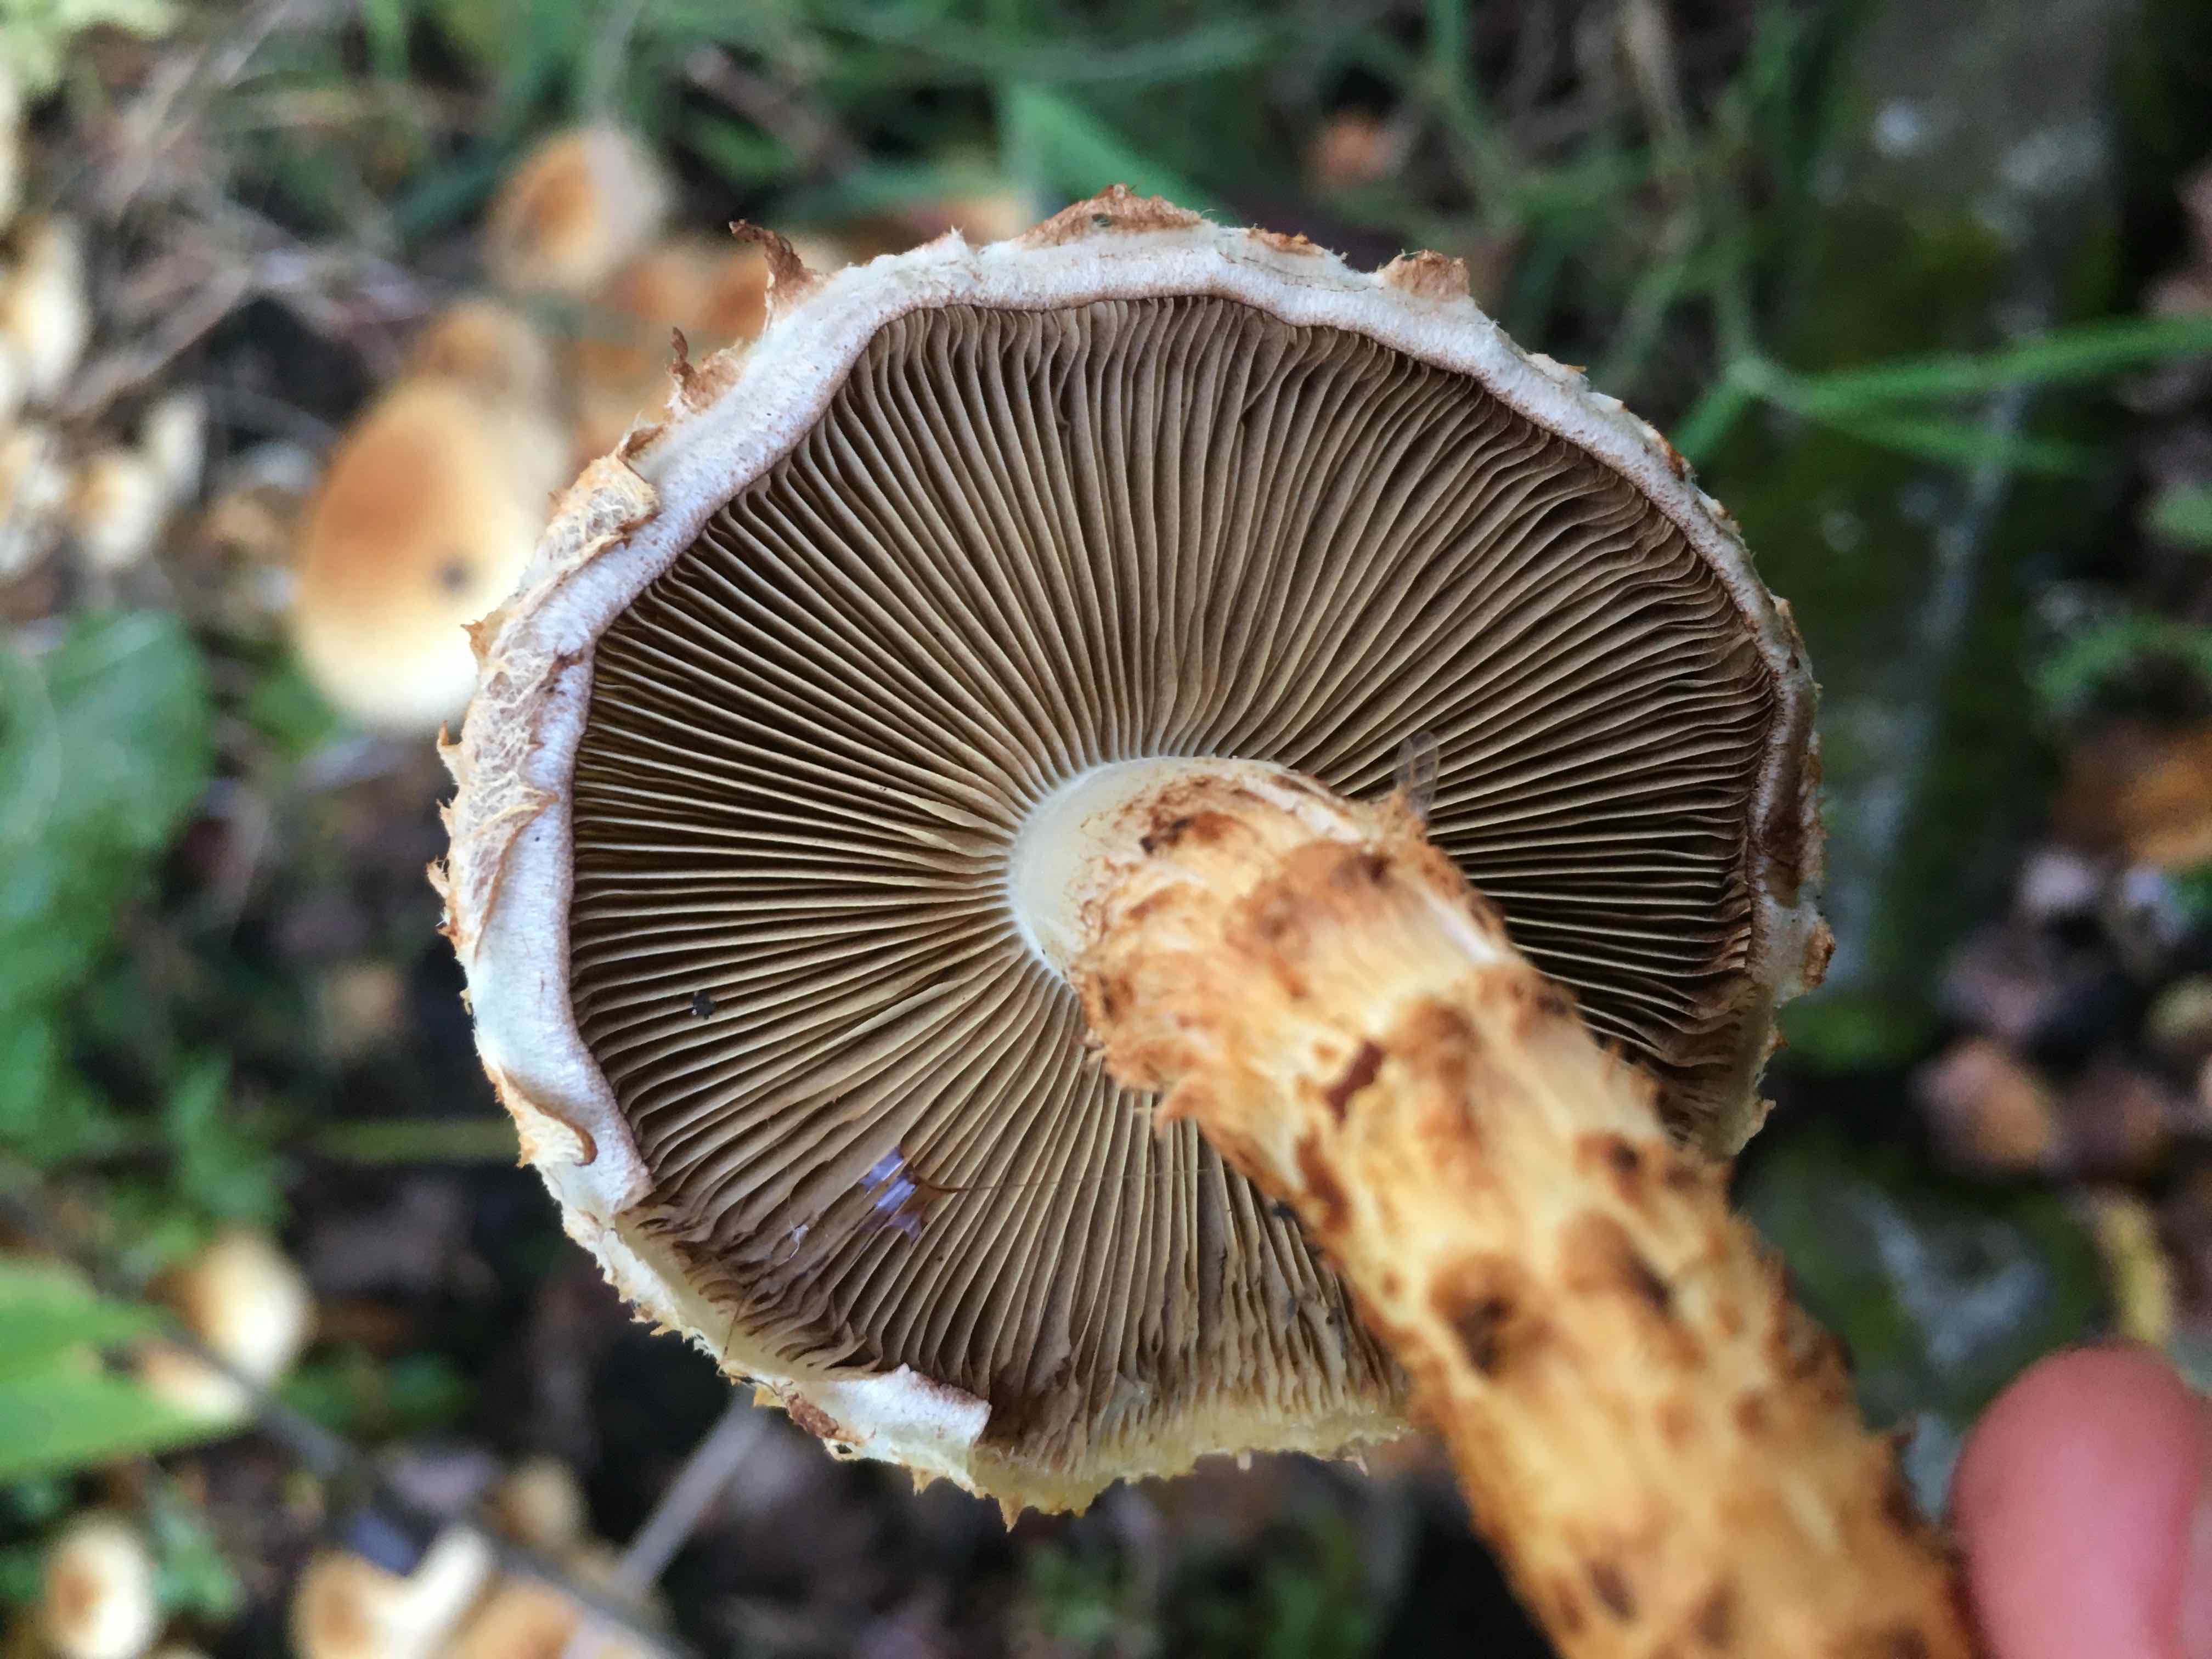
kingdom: Fungi
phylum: Basidiomycota
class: Agaricomycetes
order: Agaricales
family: Strophariaceae
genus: Pholiota
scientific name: Pholiota squarrosa
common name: krumskællet skælhat
